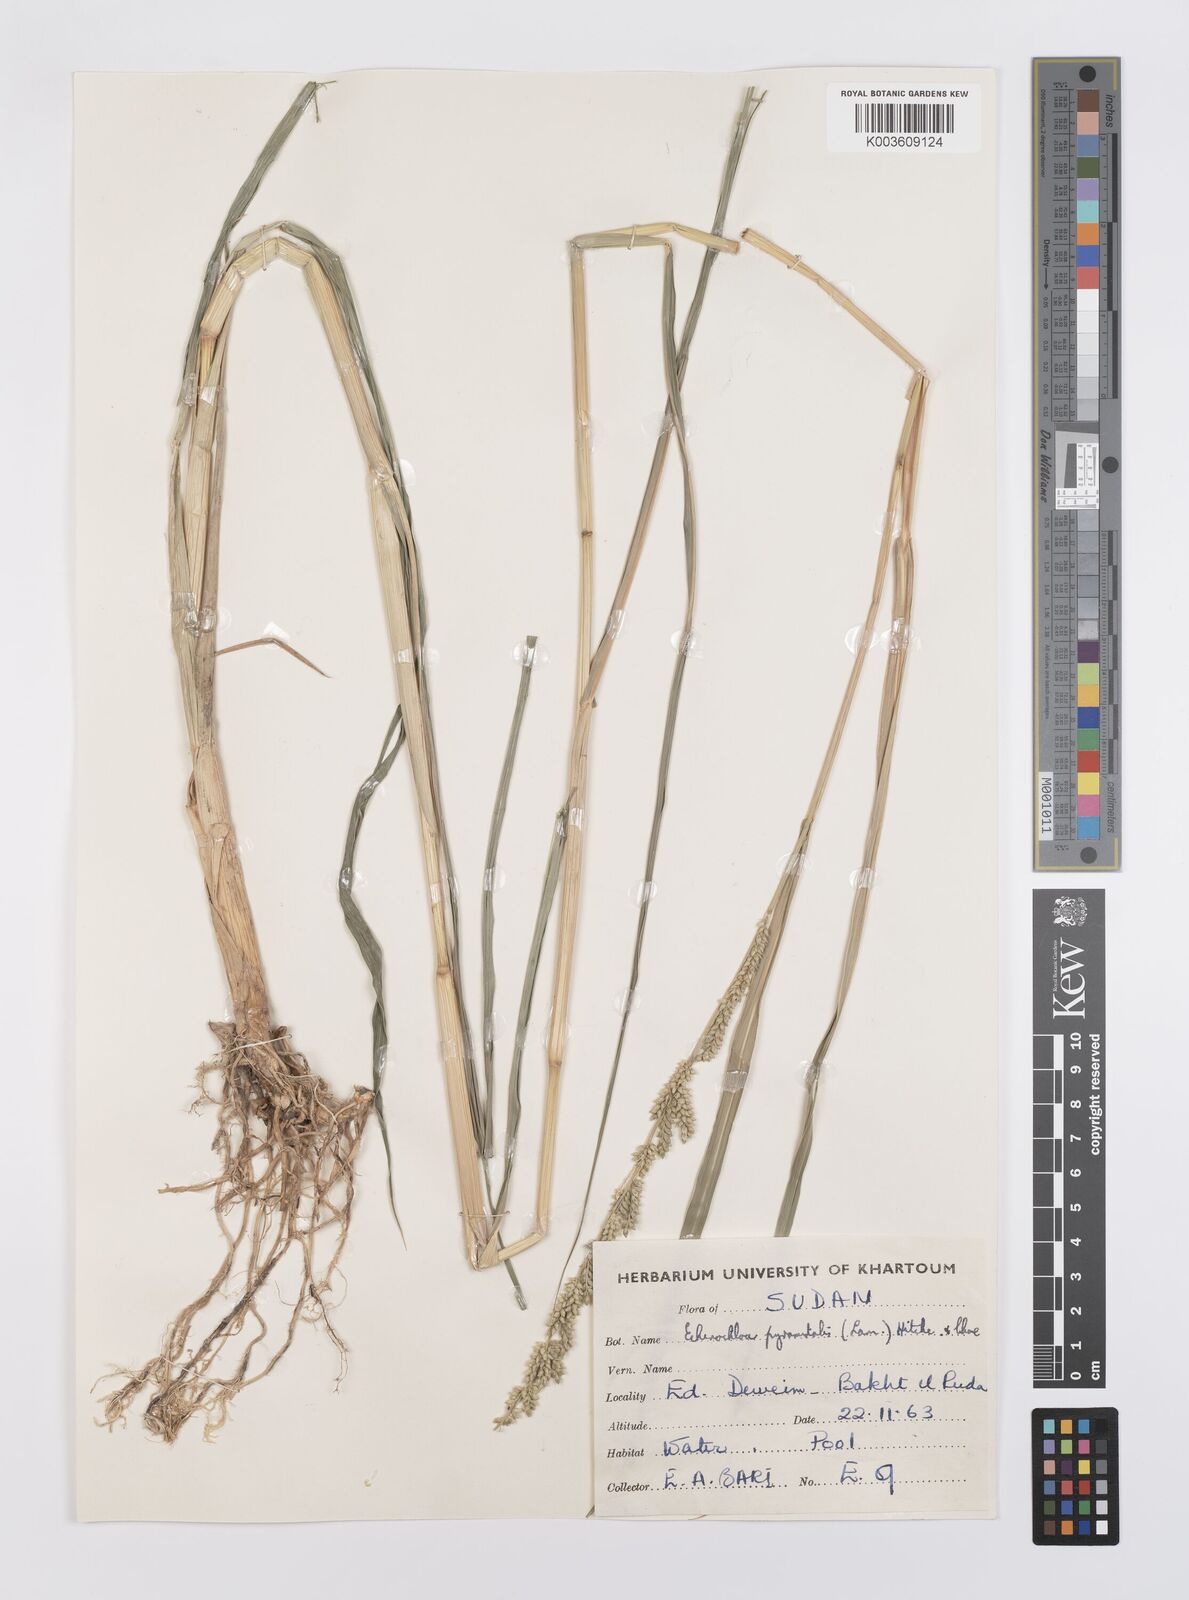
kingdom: Plantae
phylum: Tracheophyta
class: Liliopsida
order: Poales
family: Poaceae
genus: Echinochloa
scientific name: Echinochloa pyramidalis
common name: Antelope grass
